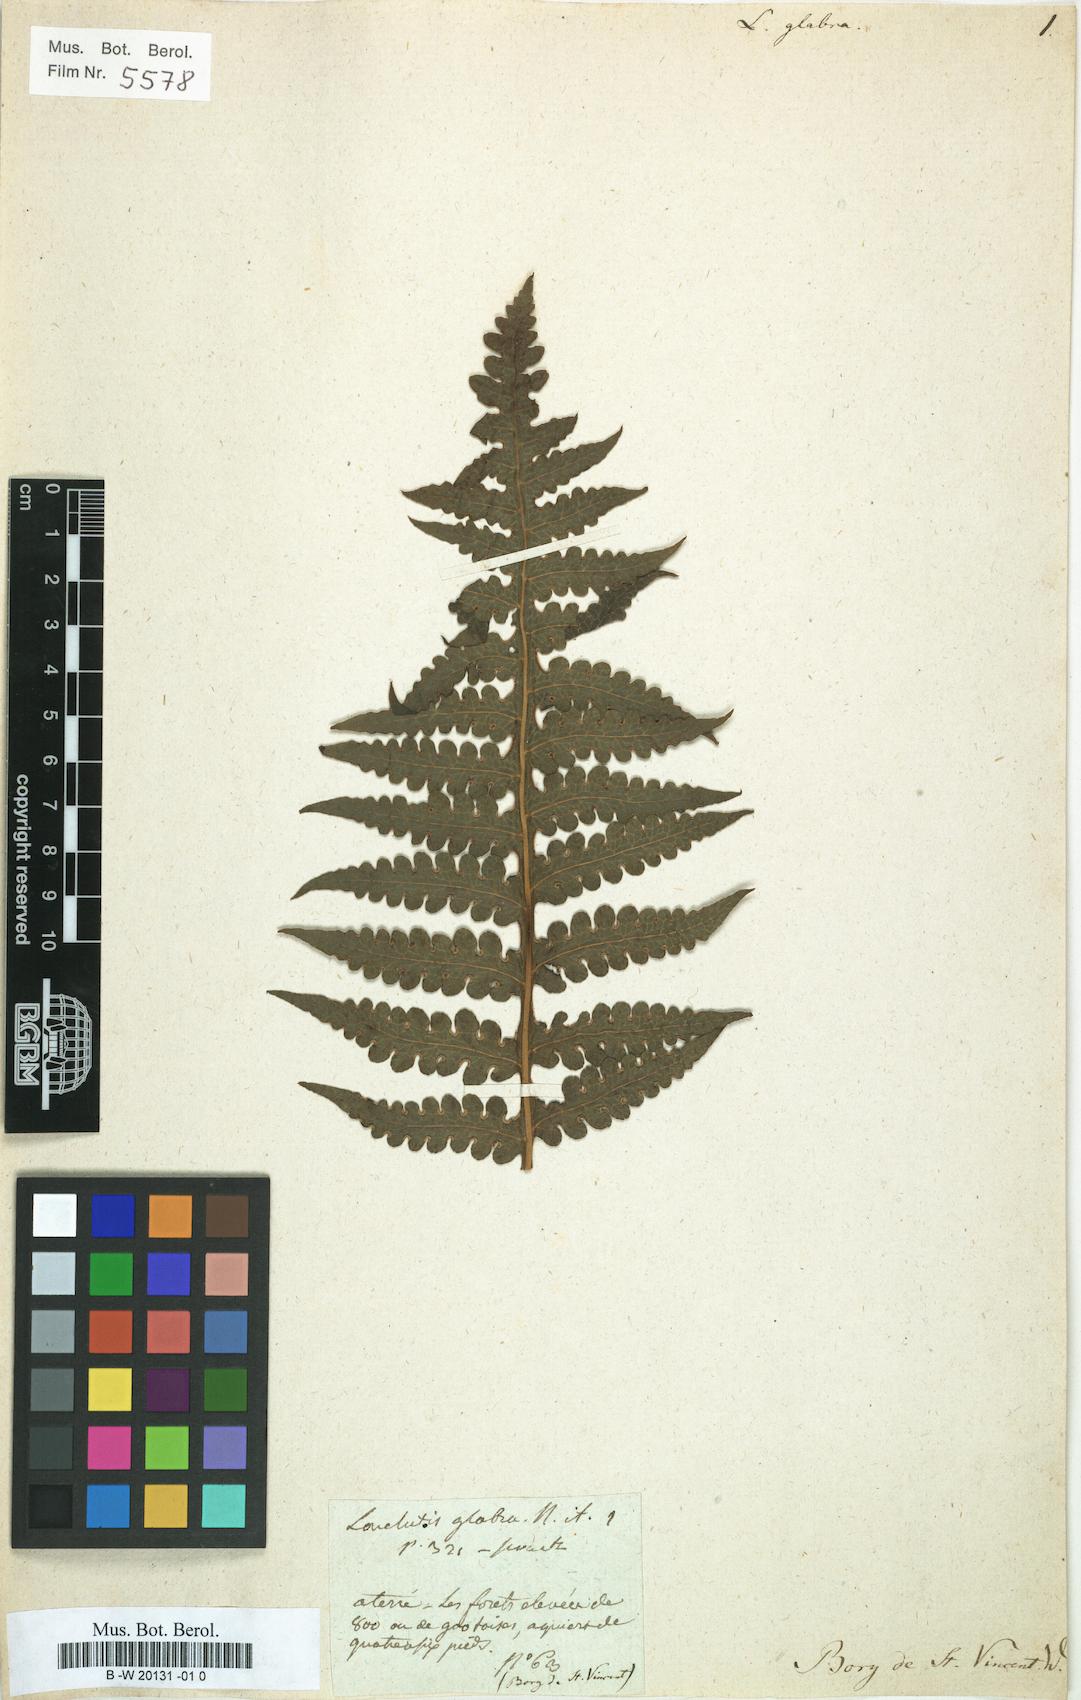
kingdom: Plantae
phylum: Tracheophyta
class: Polypodiopsida
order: Polypodiales
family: Dennstaedtiaceae
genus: Blotiella
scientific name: Blotiella glabra
